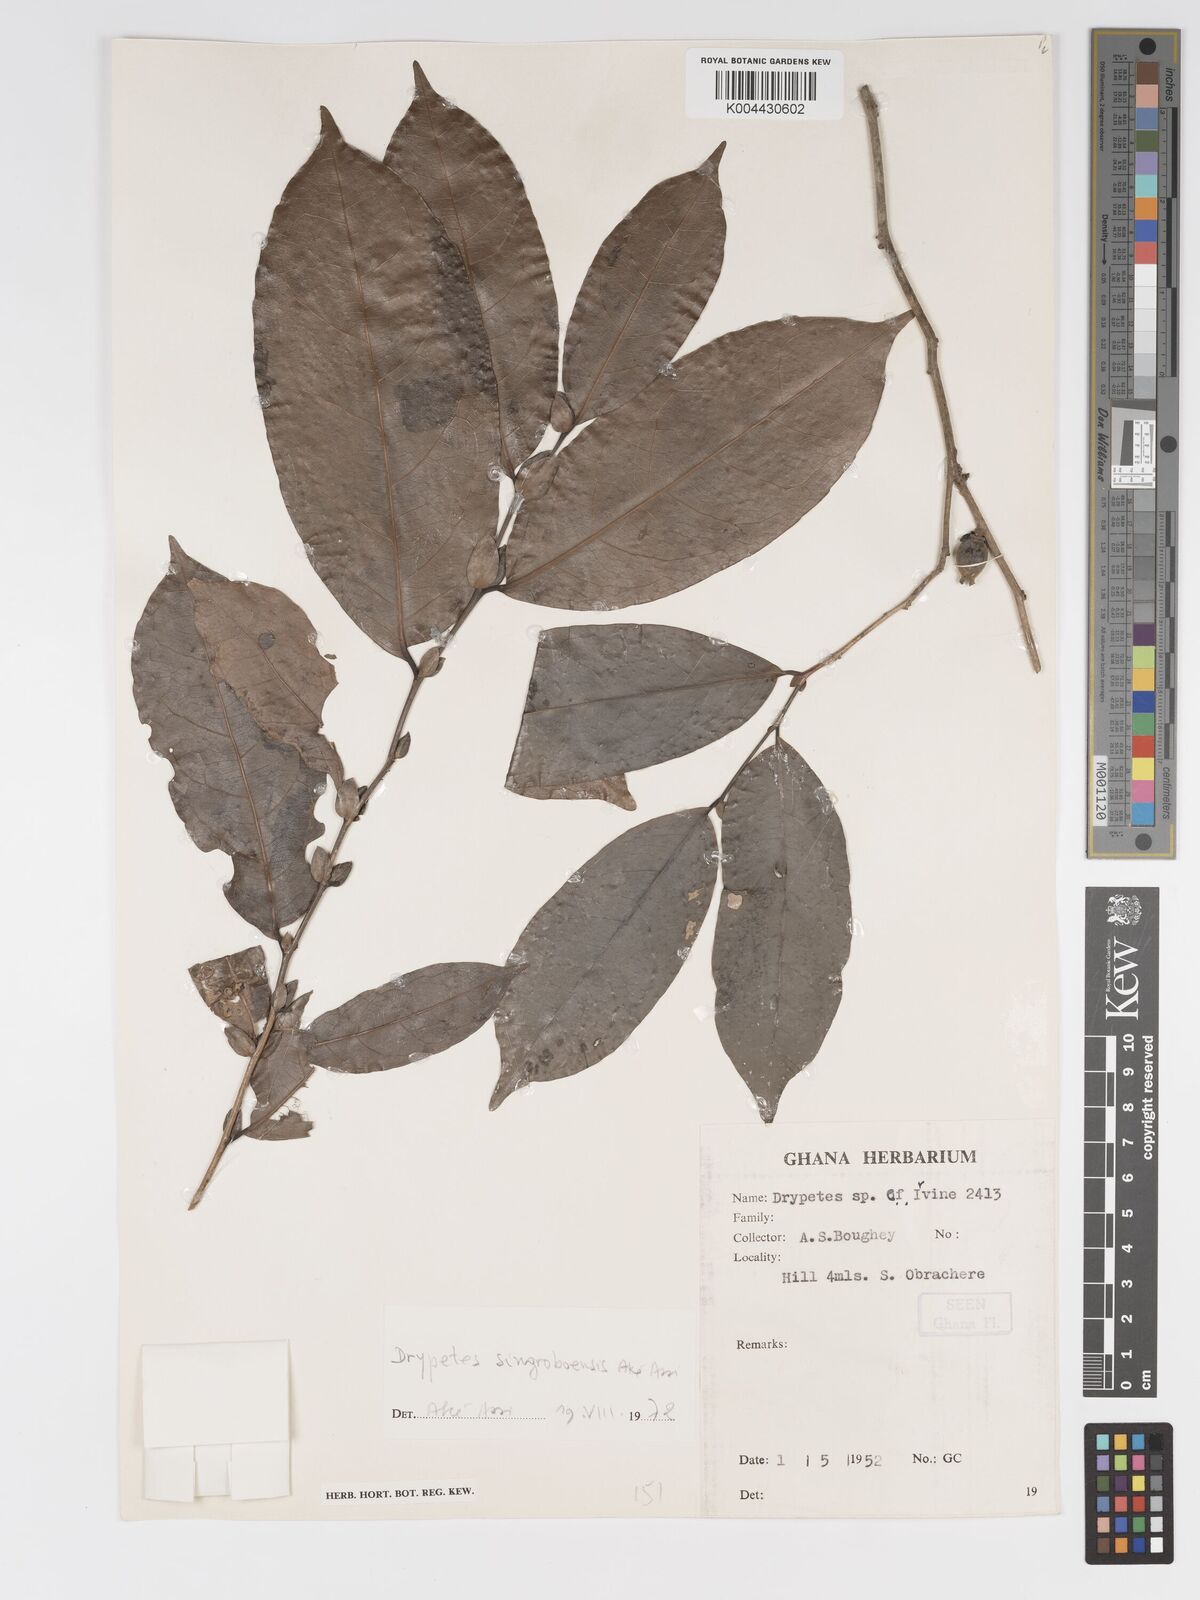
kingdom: Plantae
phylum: Tracheophyta
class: Magnoliopsida
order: Malpighiales
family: Putranjivaceae
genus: Drypetes
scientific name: Drypetes singroboensis
